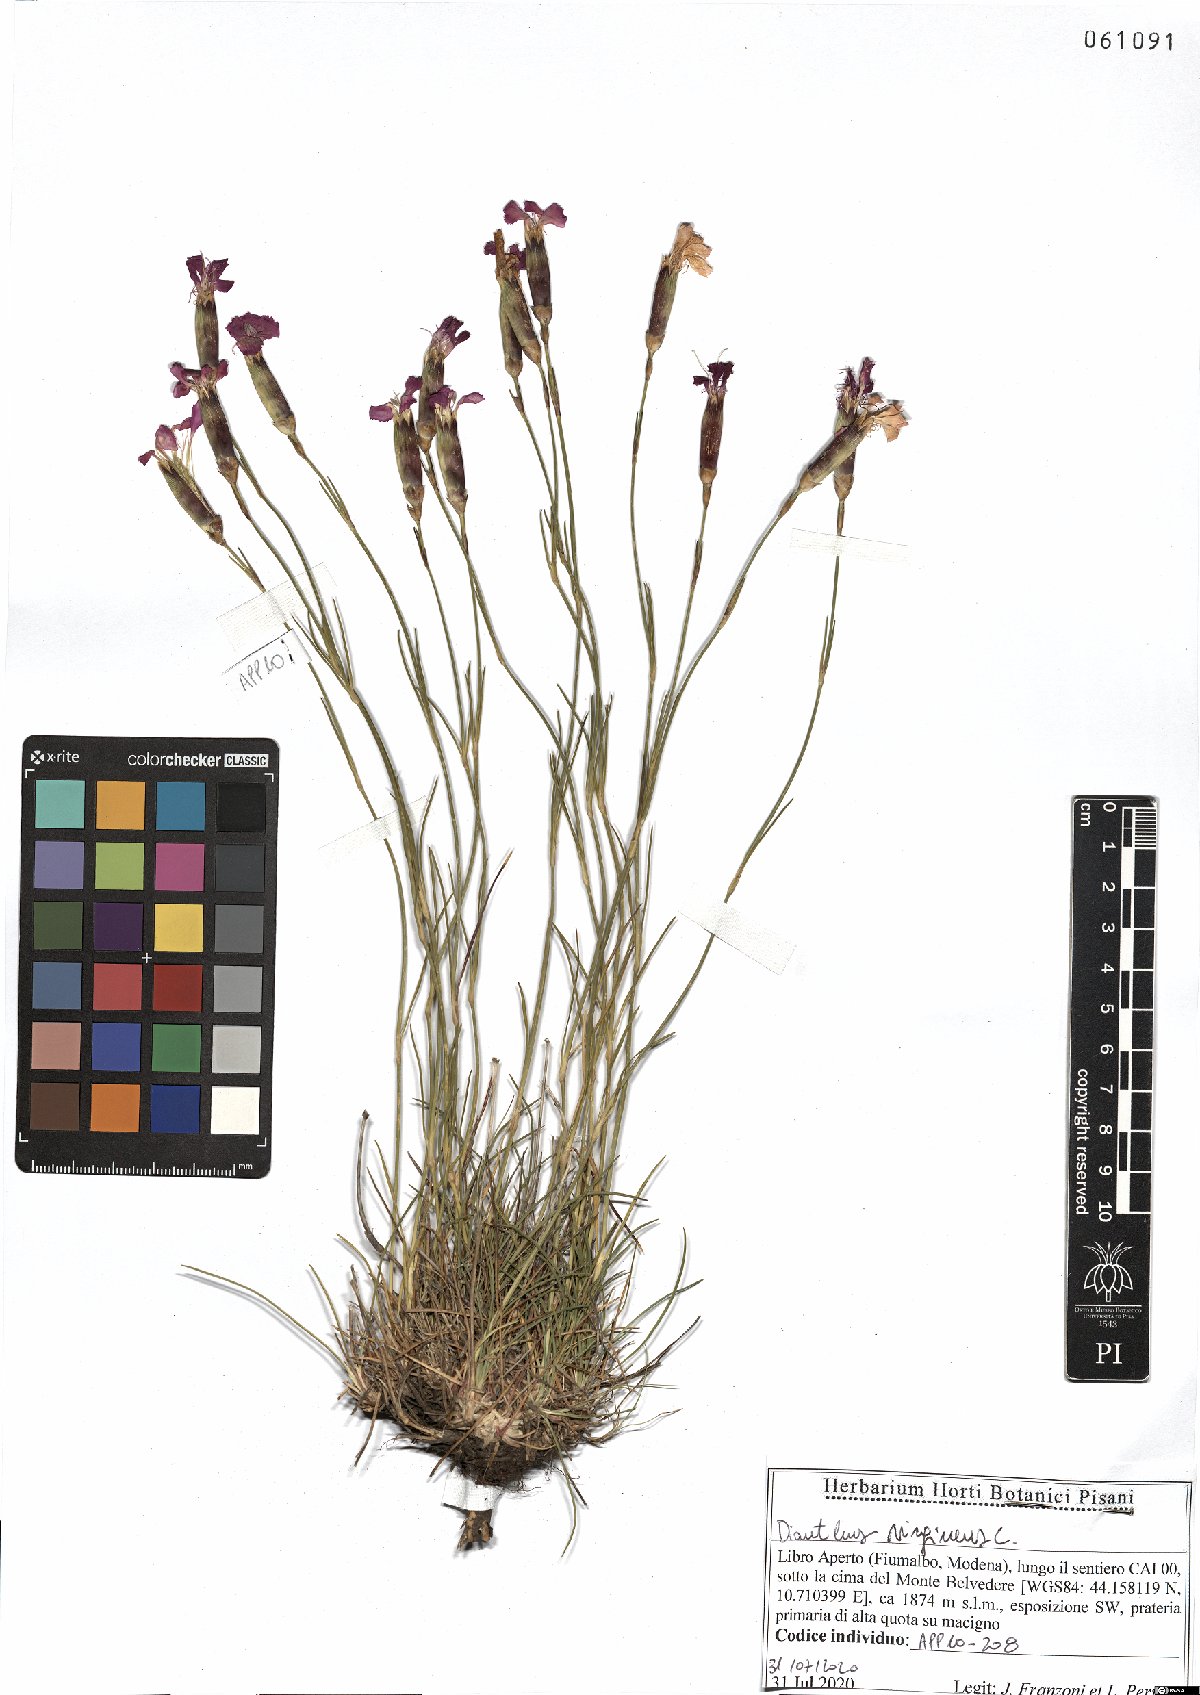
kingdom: Plantae
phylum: Tracheophyta
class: Magnoliopsida
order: Caryophyllales
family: Caryophyllaceae
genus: Dianthus
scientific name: Dianthus virgineus
